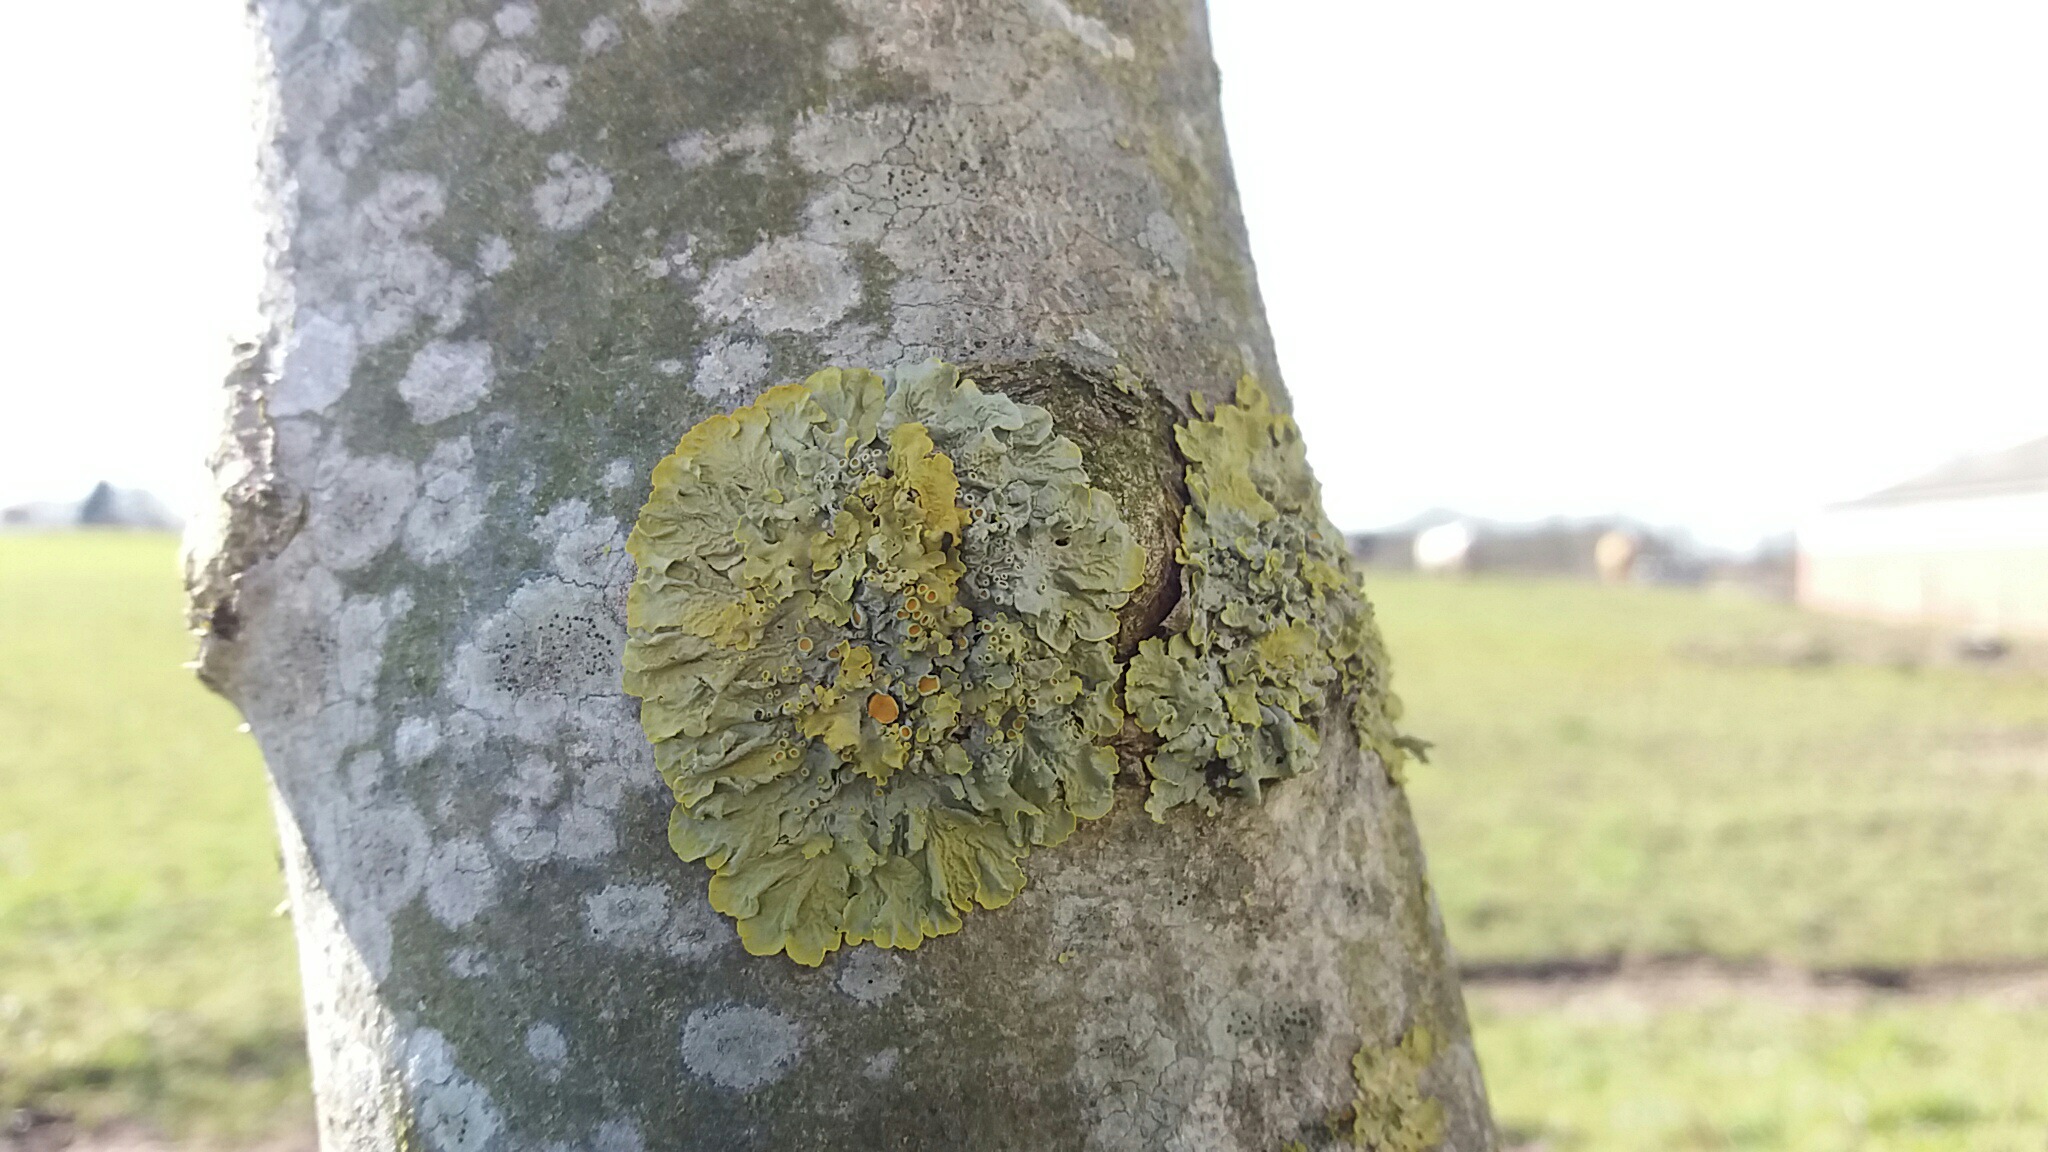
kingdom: Fungi
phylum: Ascomycota
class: Lecanoromycetes
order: Teloschistales
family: Teloschistaceae
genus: Xanthoria
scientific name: Xanthoria parietina
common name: almindelig væggelav
